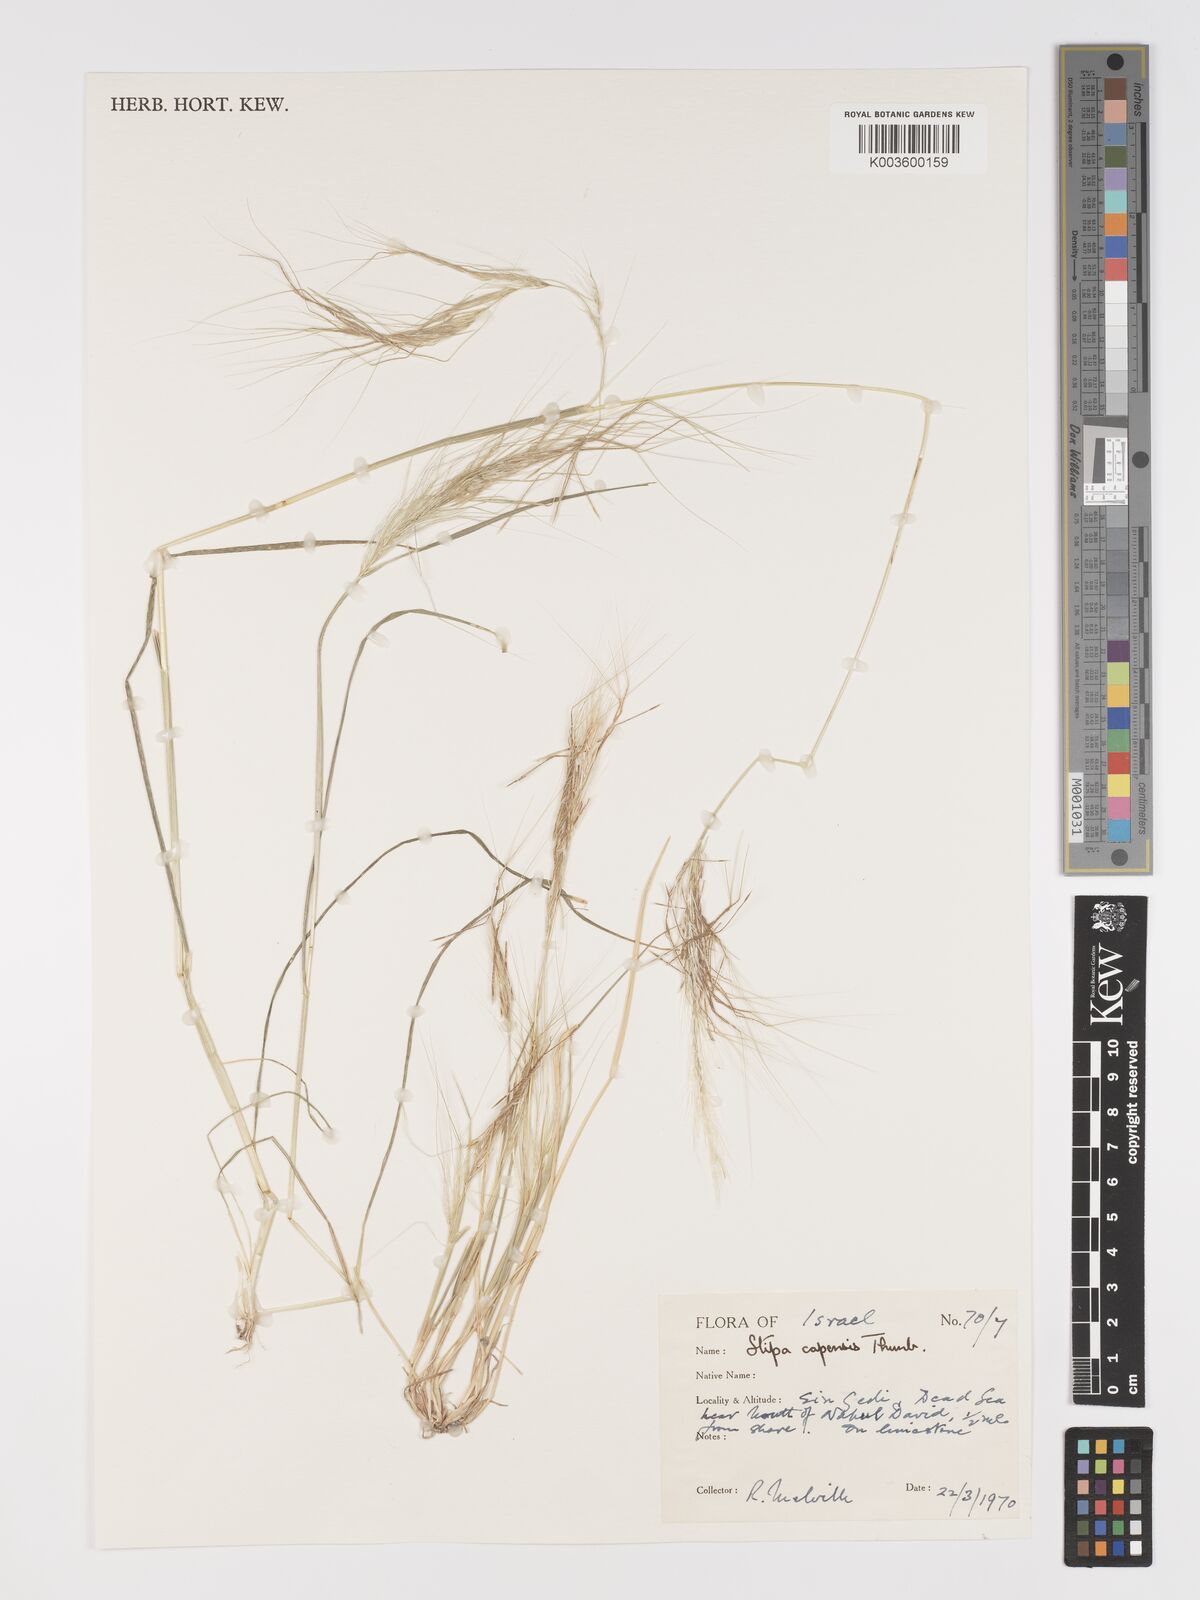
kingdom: Plantae
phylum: Tracheophyta
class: Liliopsida
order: Poales
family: Poaceae
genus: Stipellula
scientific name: Stipellula capensis
